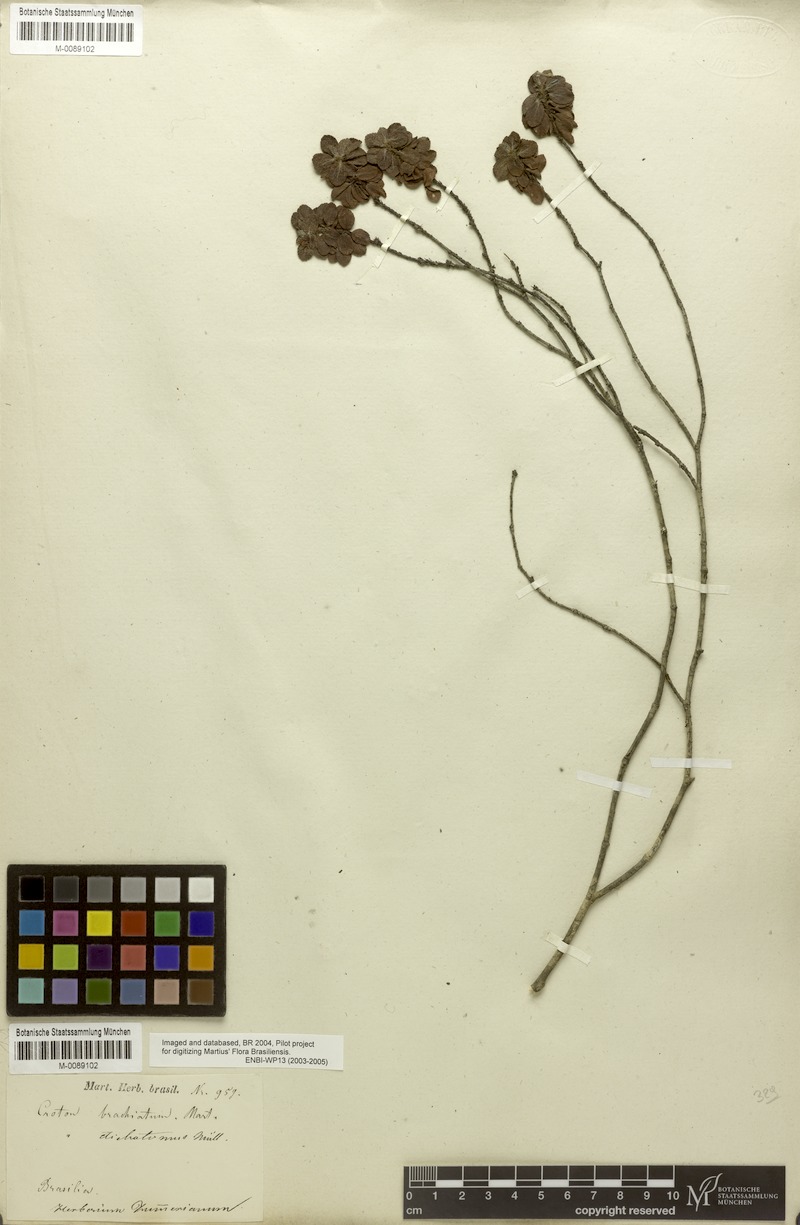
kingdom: Plantae
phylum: Tracheophyta
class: Magnoliopsida
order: Malpighiales
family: Euphorbiaceae
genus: Croton
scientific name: Croton serratus
